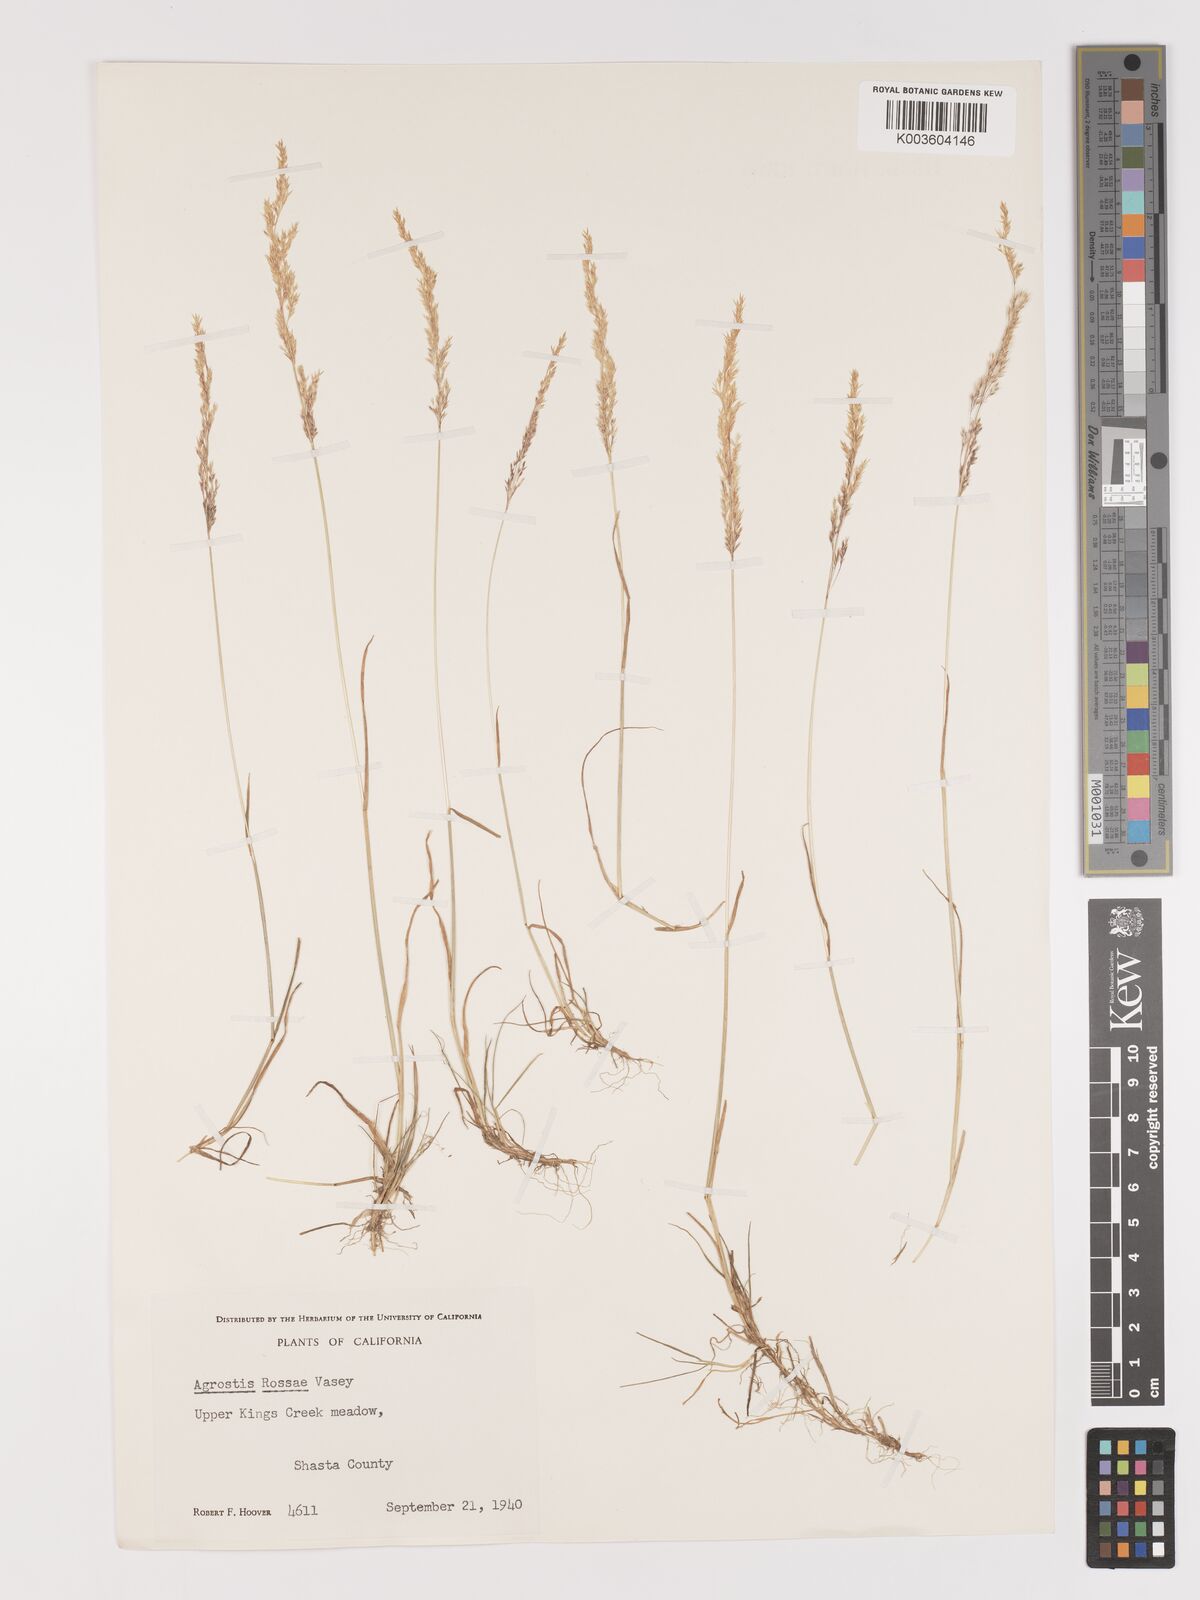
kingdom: Plantae
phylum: Tracheophyta
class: Liliopsida
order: Poales
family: Poaceae
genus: Agrostis
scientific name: Agrostis rossiae
